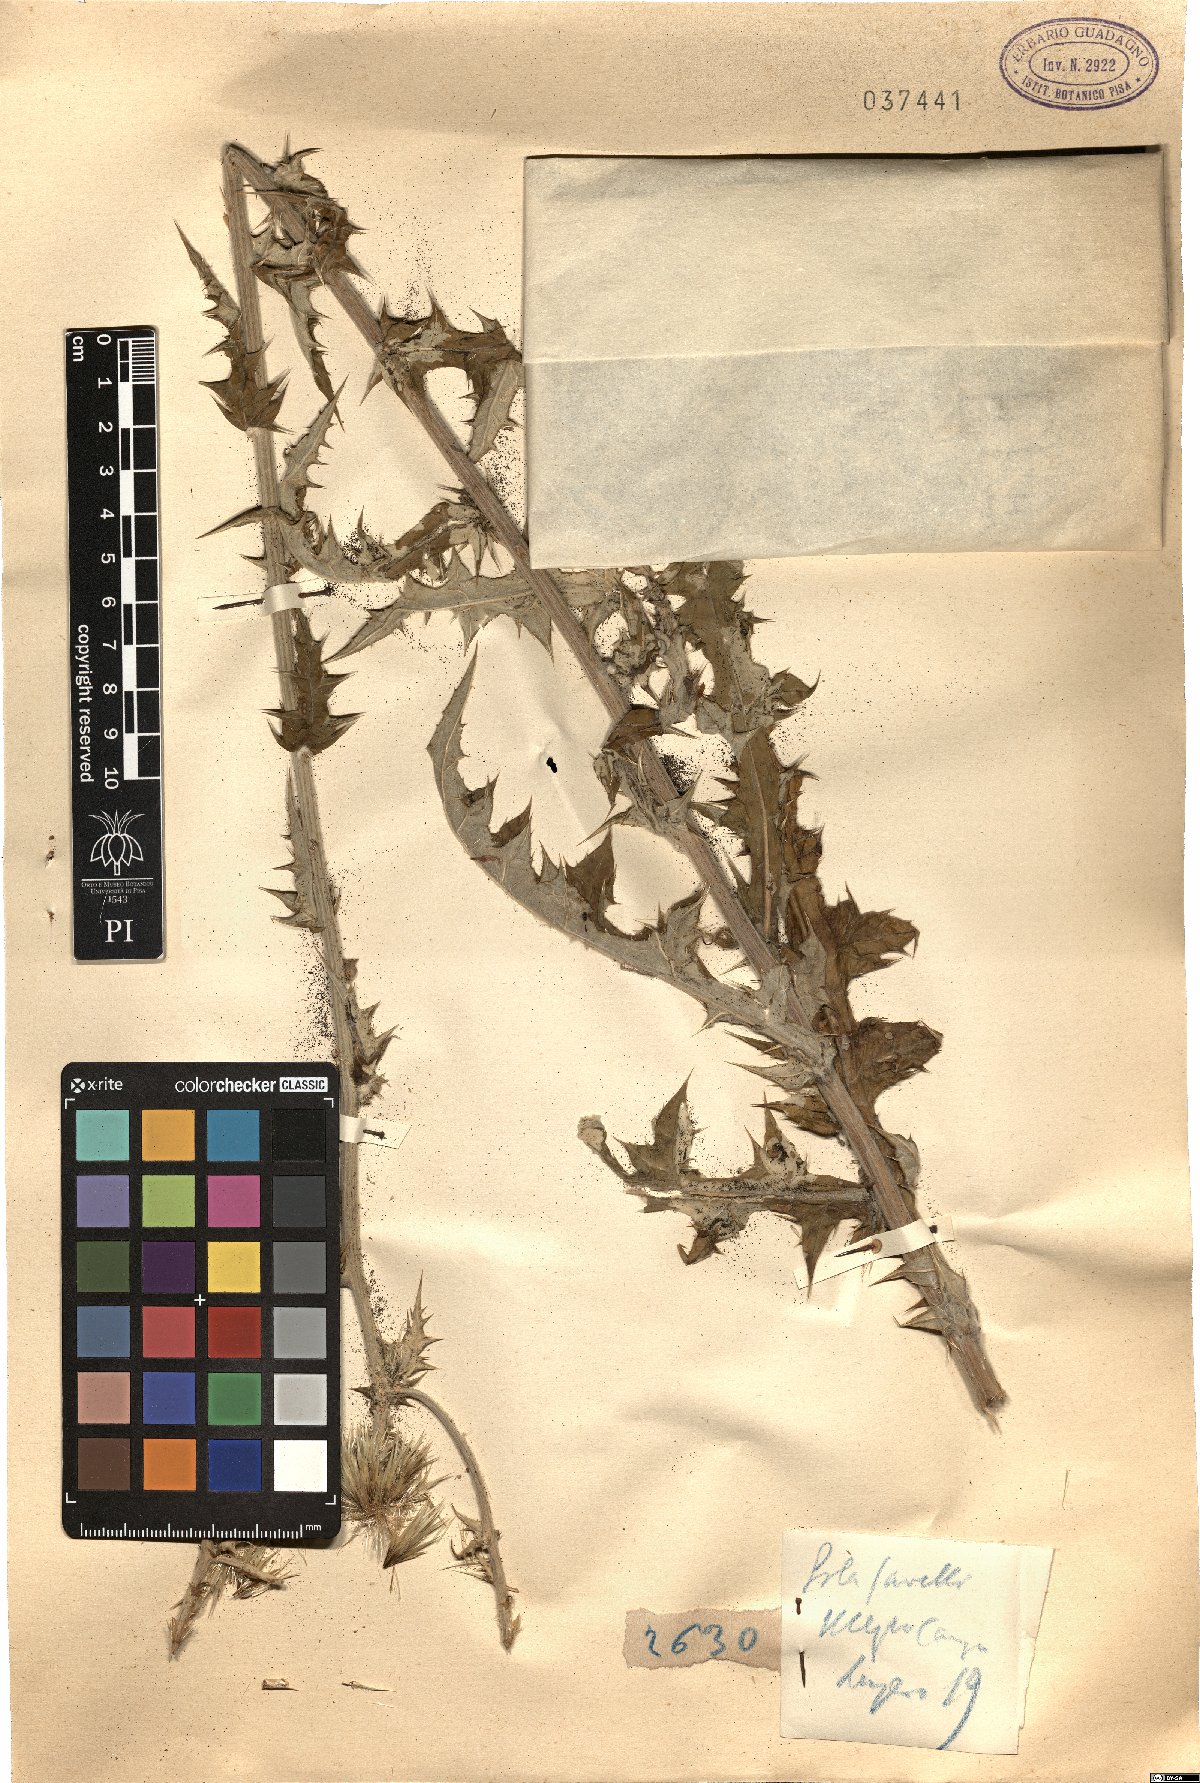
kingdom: Plantae
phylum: Tracheophyta
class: Magnoliopsida
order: Asterales
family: Asteraceae
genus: Echinops
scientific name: Echinops
